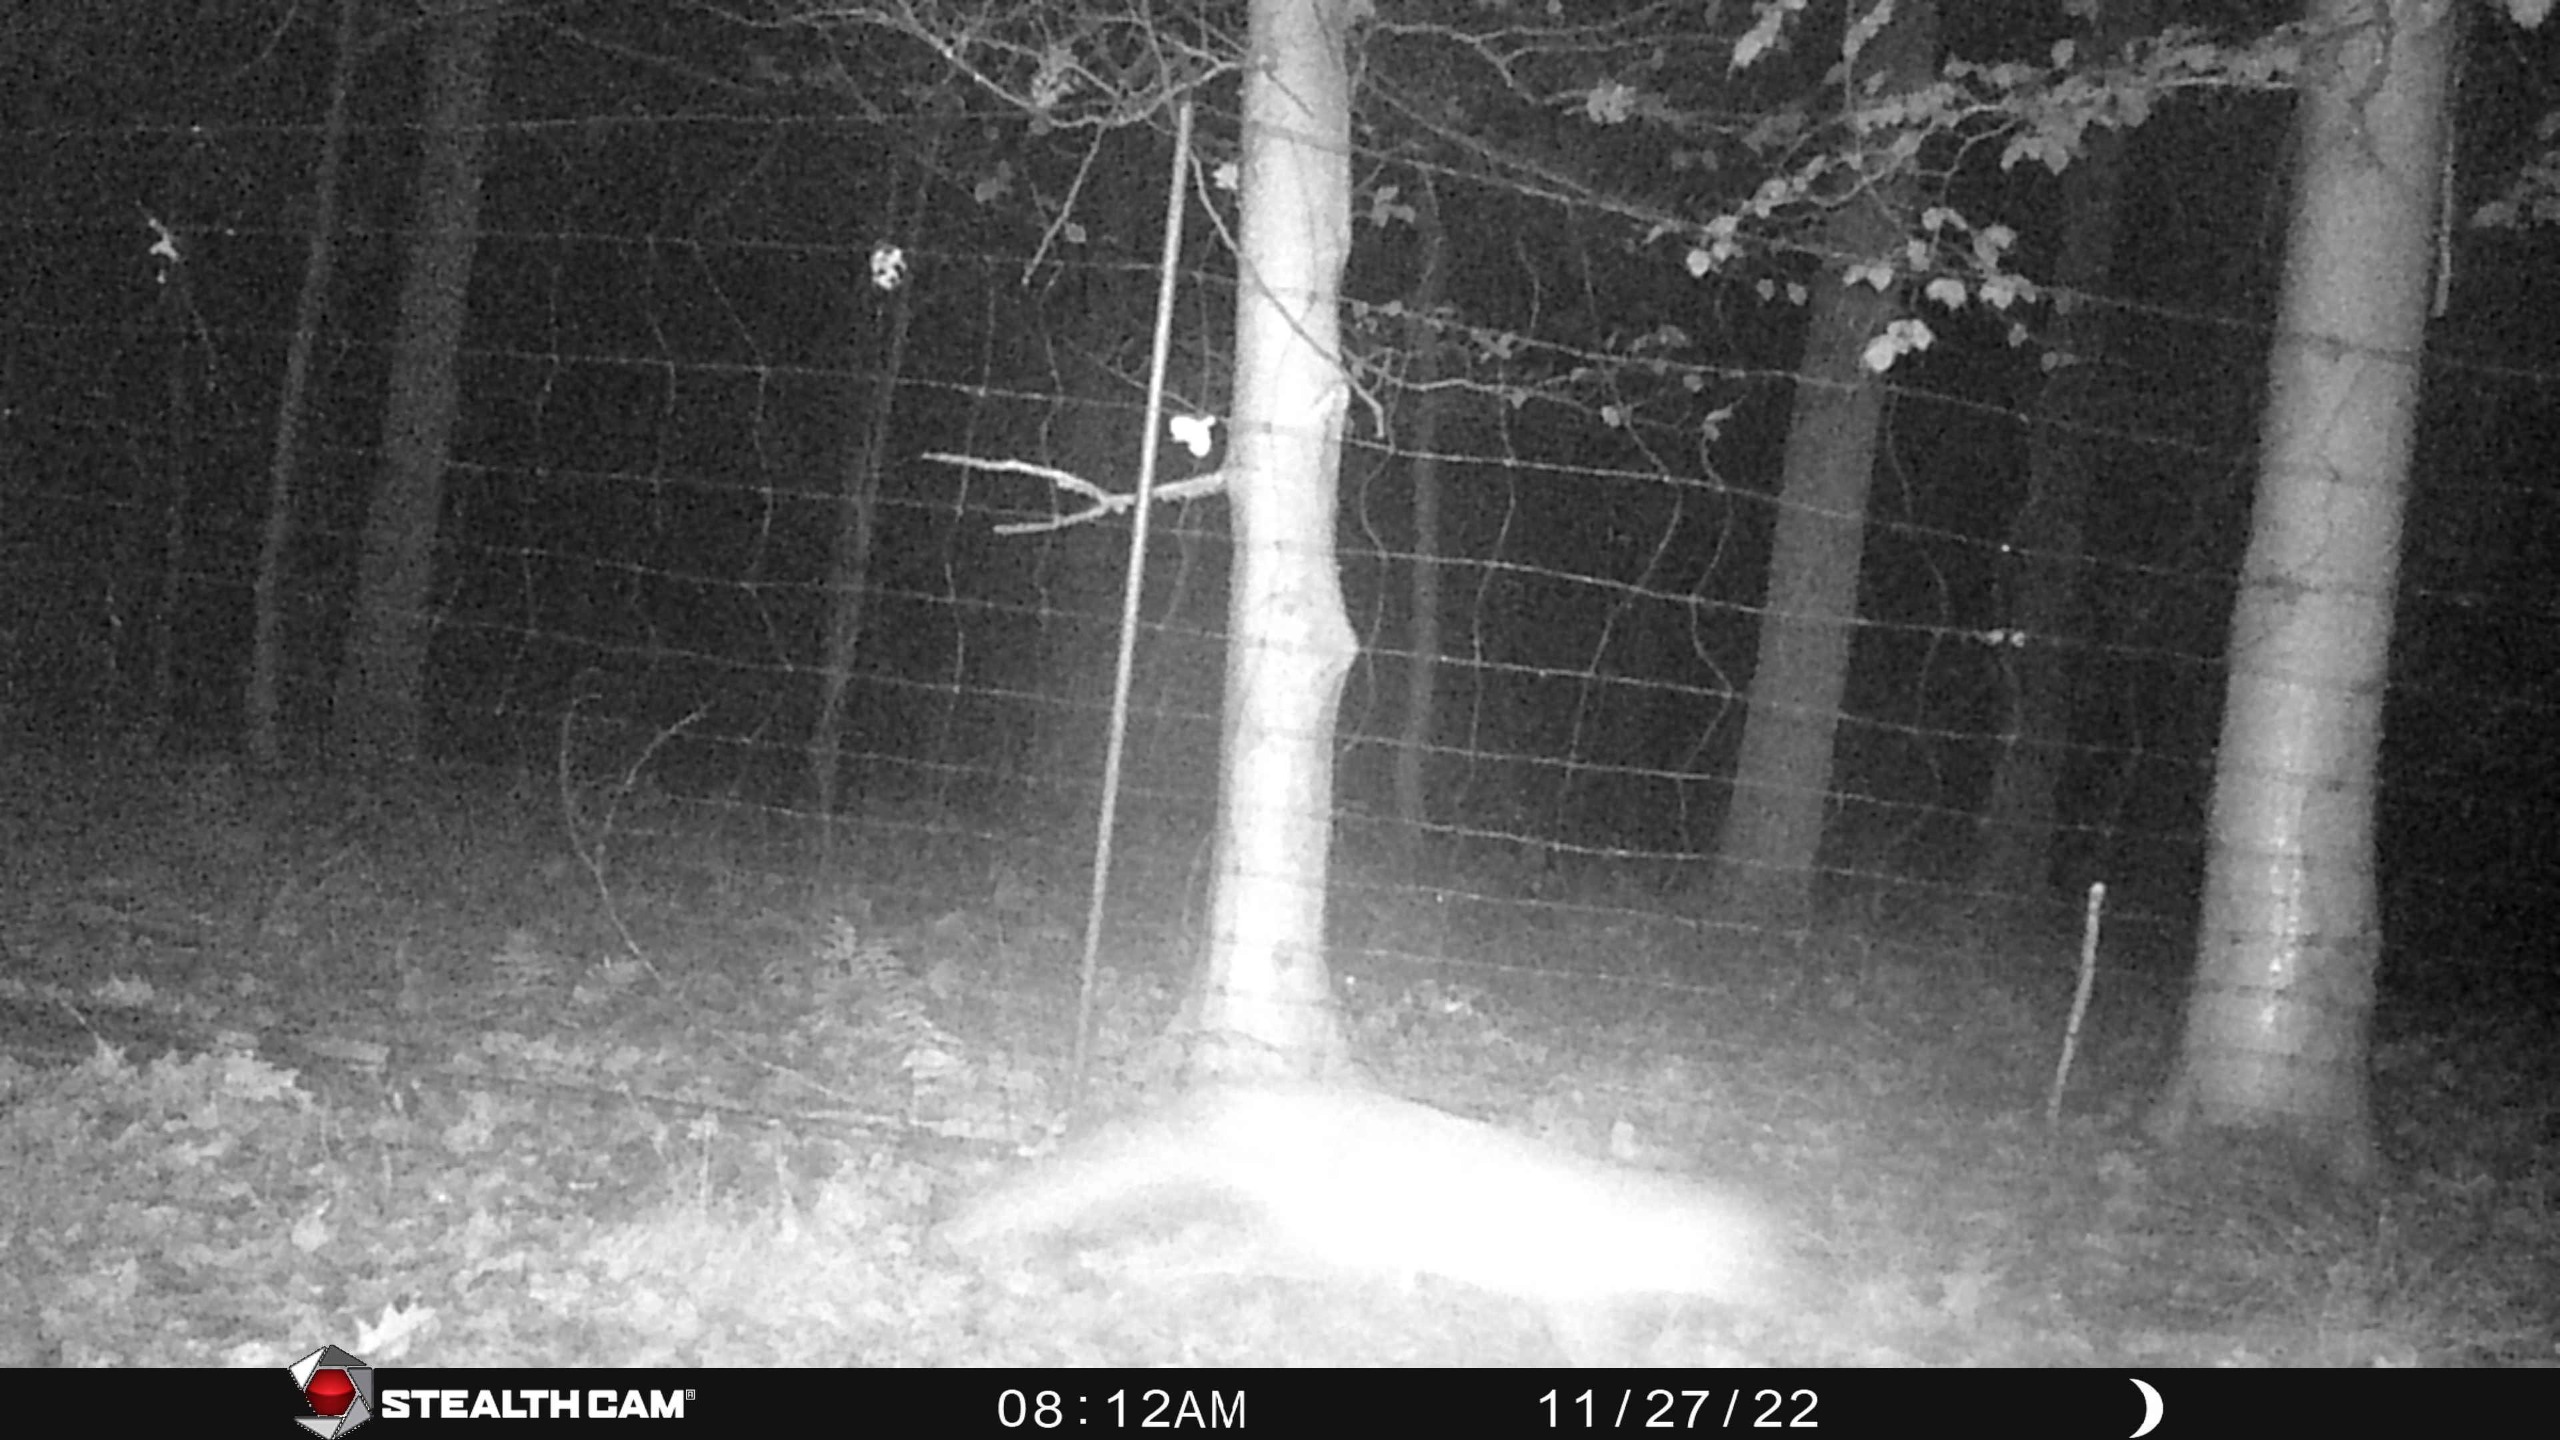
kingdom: Animalia
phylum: Chordata
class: Mammalia
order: Carnivora
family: Canidae
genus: Vulpes
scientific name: Vulpes vulpes
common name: Ræv
